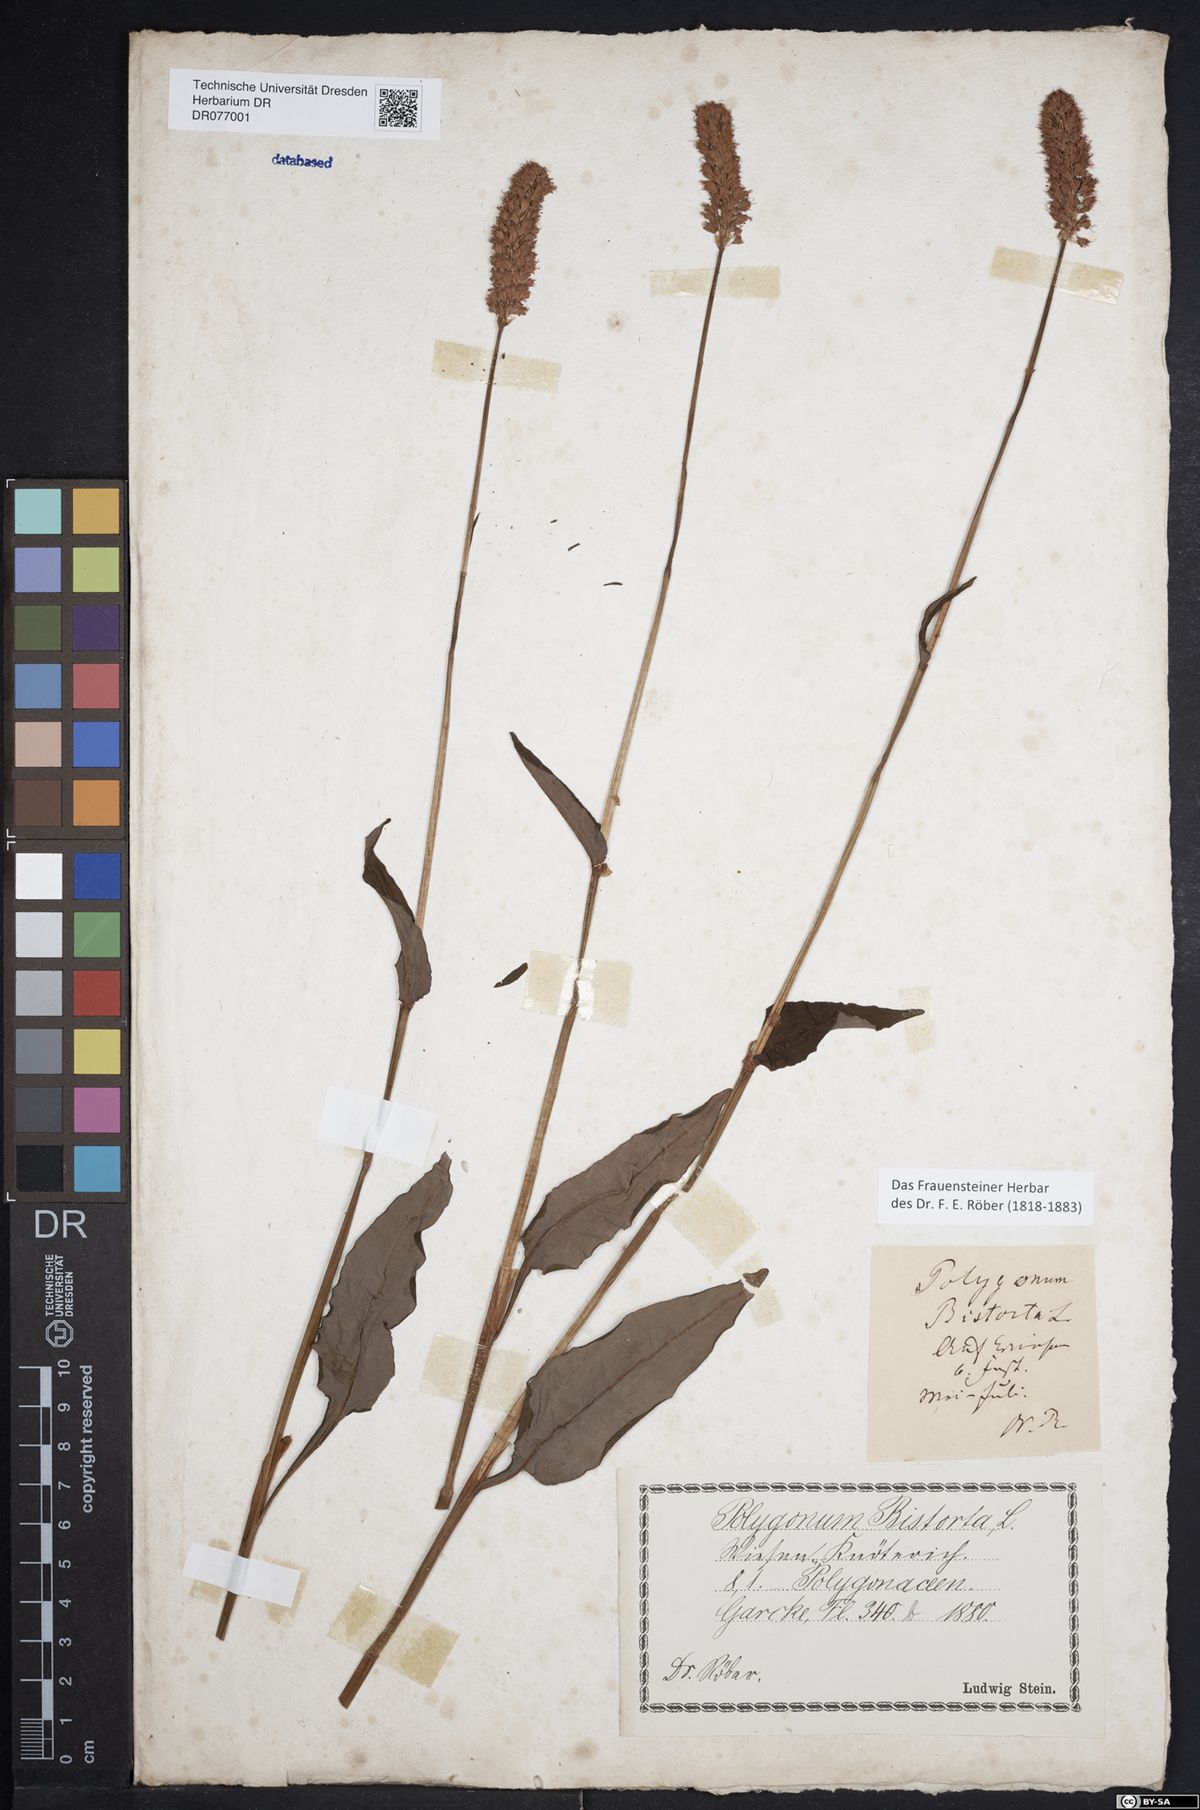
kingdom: Plantae
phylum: Tracheophyta
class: Magnoliopsida
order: Caryophyllales
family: Polygonaceae
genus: Bistorta
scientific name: Bistorta officinalis
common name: Common bistort
